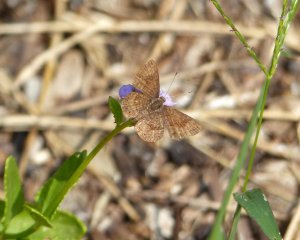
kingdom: Animalia
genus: Calephelis
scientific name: Calephelis nemesis
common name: Fatal Metalmark
